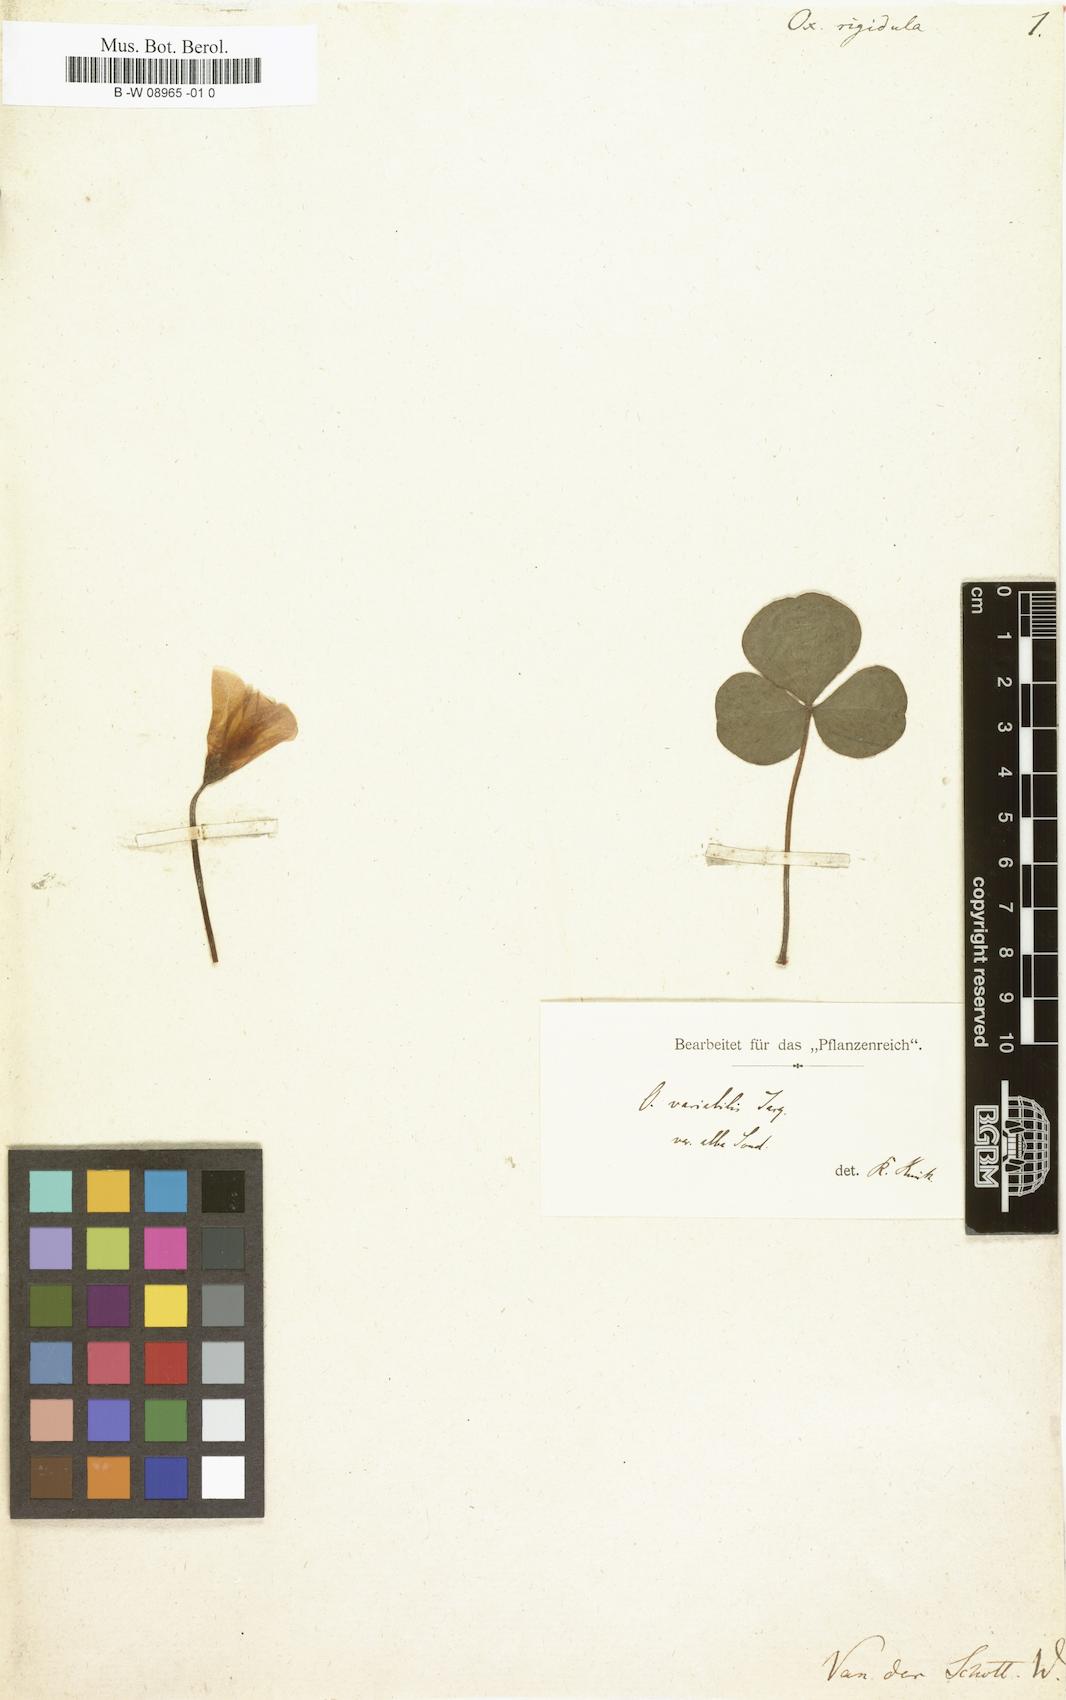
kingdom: Plantae
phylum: Tracheophyta
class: Magnoliopsida
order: Oxalidales
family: Oxalidaceae
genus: Oxalis
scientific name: Oxalis purpurea
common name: Purple woodsorrel
